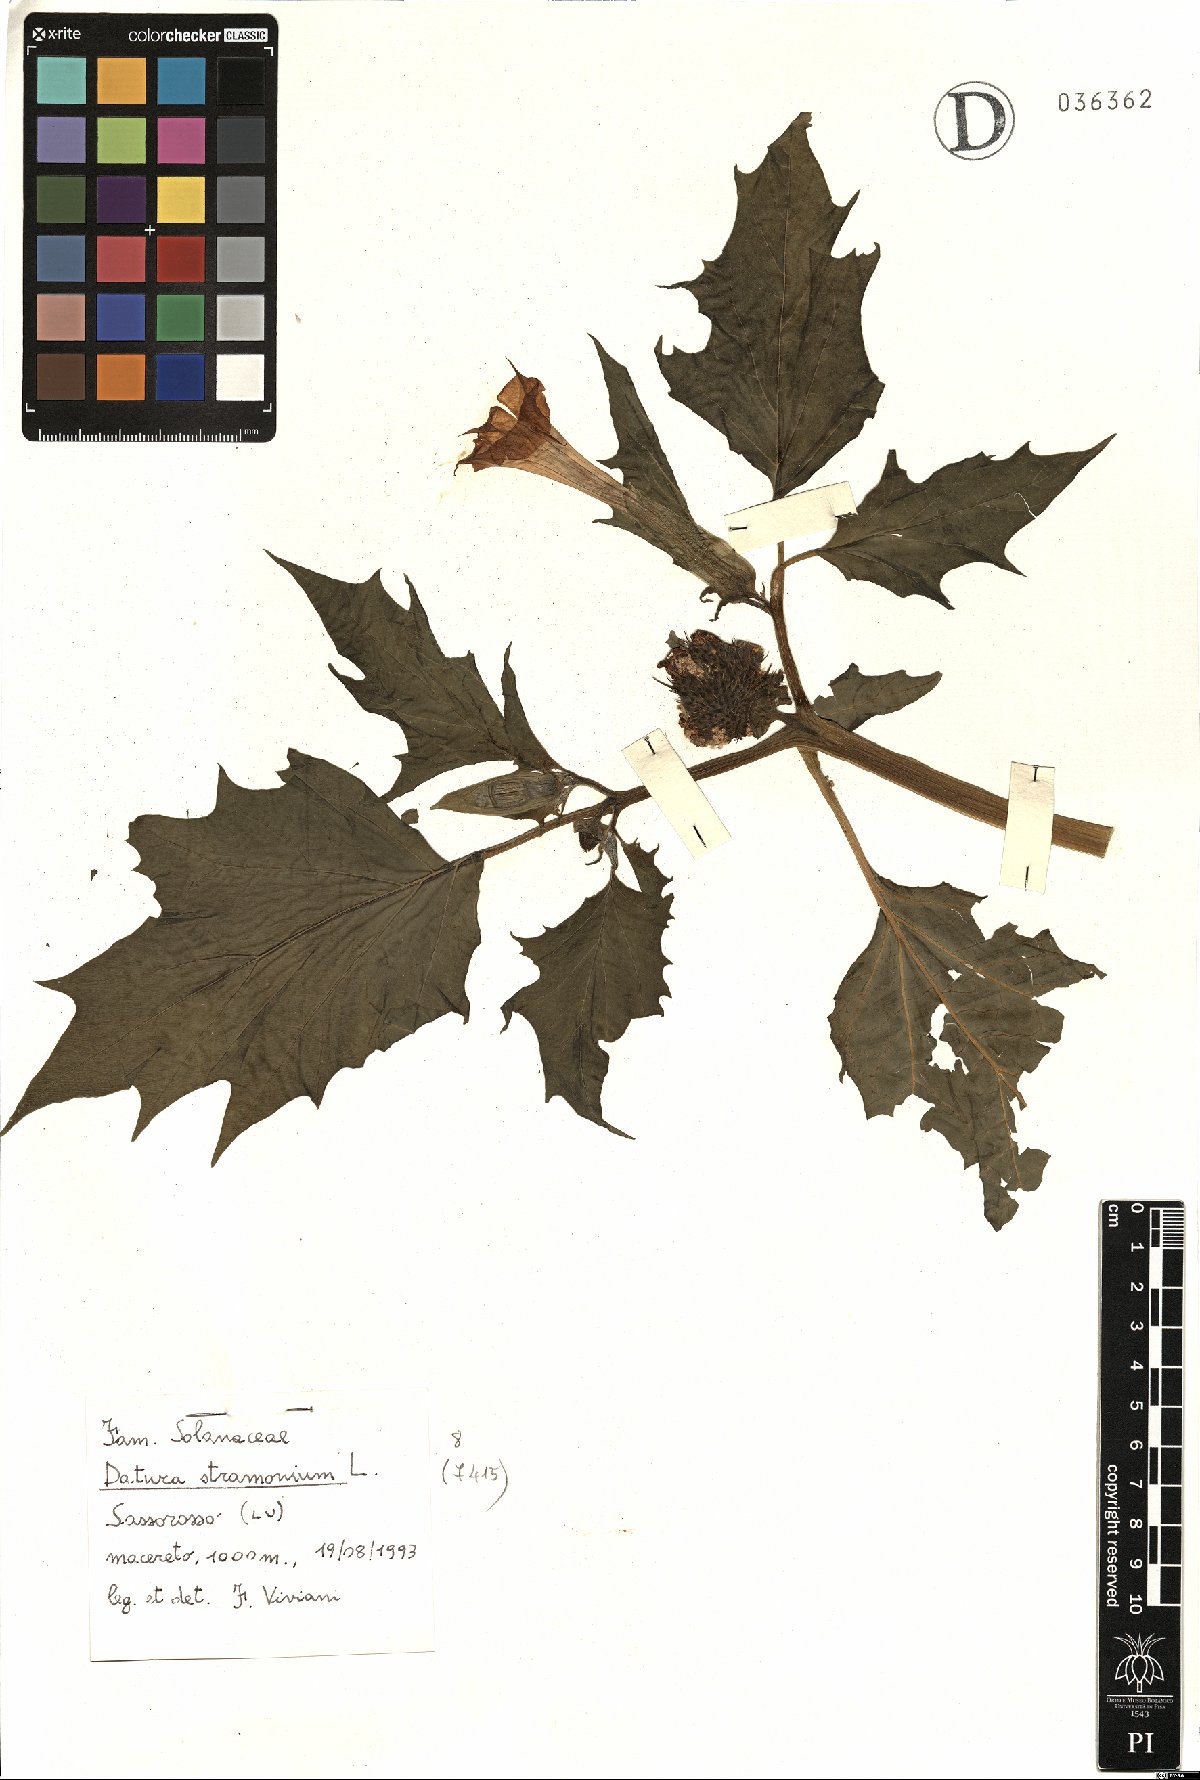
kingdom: Plantae
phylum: Tracheophyta
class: Magnoliopsida
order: Solanales
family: Solanaceae
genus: Datura
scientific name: Datura stramonium
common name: Thorn-apple
